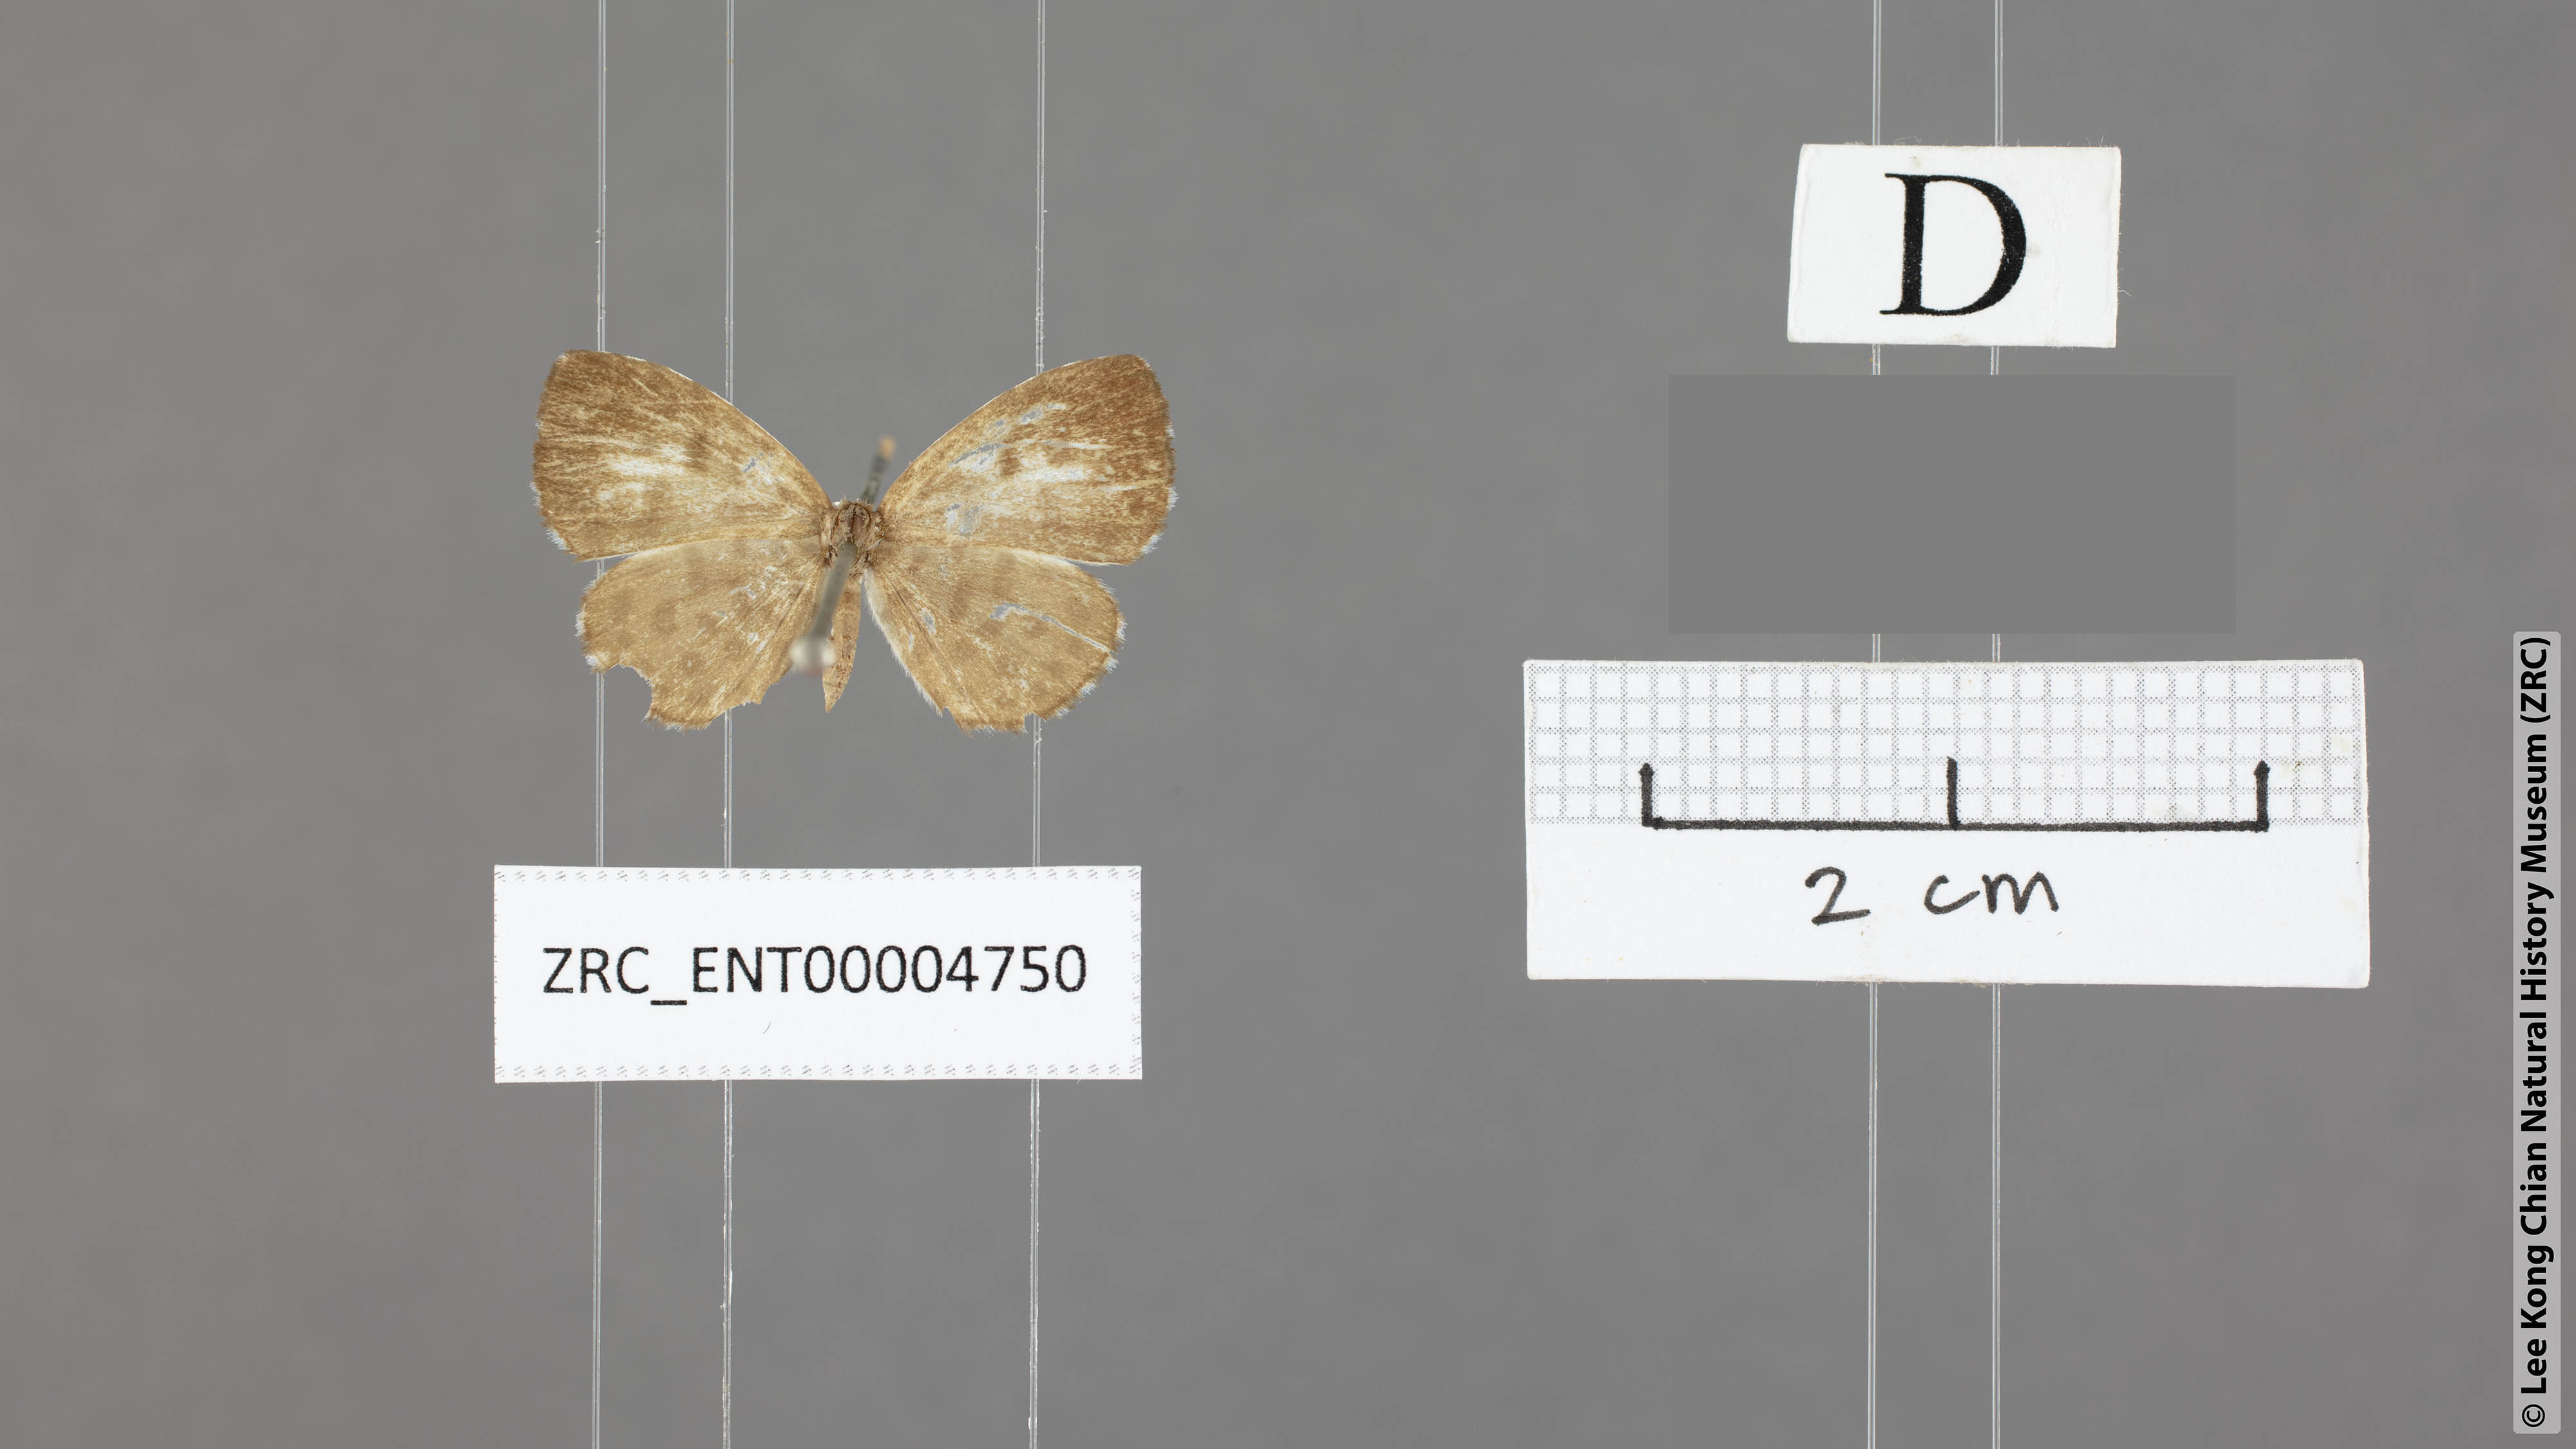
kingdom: Animalia
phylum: Arthropoda
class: Insecta
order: Lepidoptera
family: Lycaenidae
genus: Taraka
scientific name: Taraka hamada
